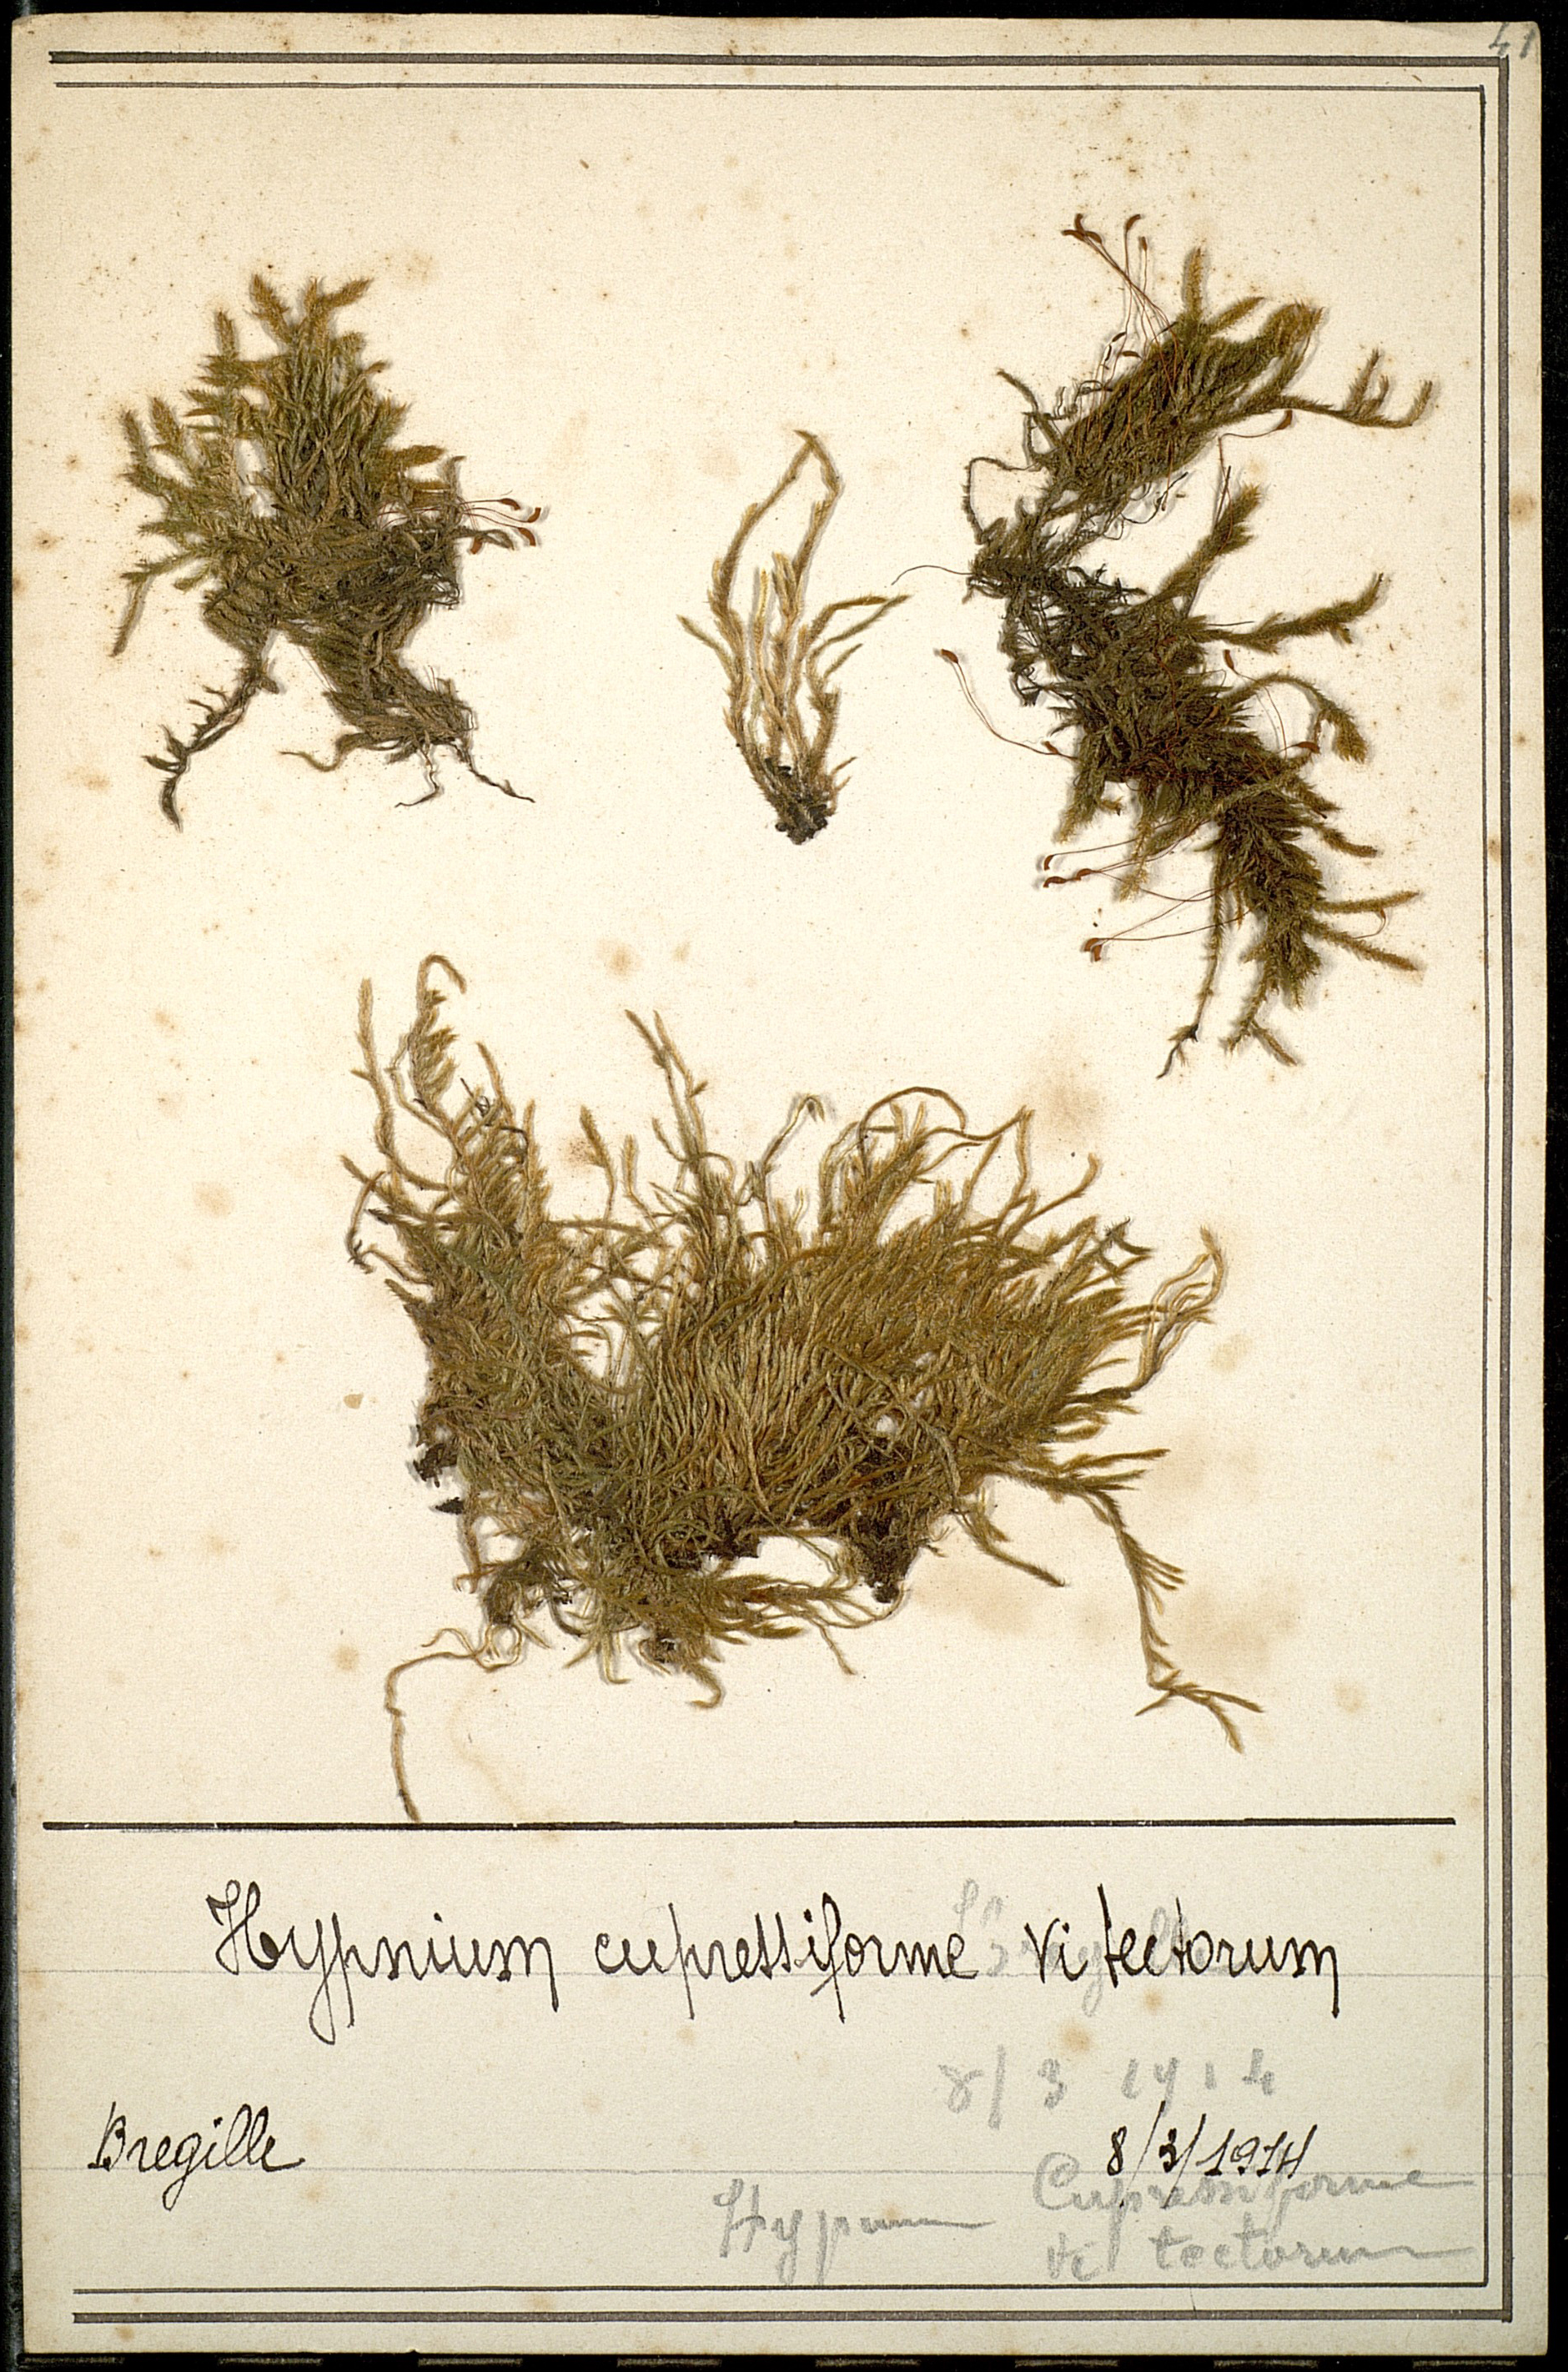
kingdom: Plantae
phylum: Bryophyta
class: Bryopsida
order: Hypnales
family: Hypnaceae
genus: Hypnum
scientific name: Hypnum cupressiforme
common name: Cypress-leaved plait-moss
